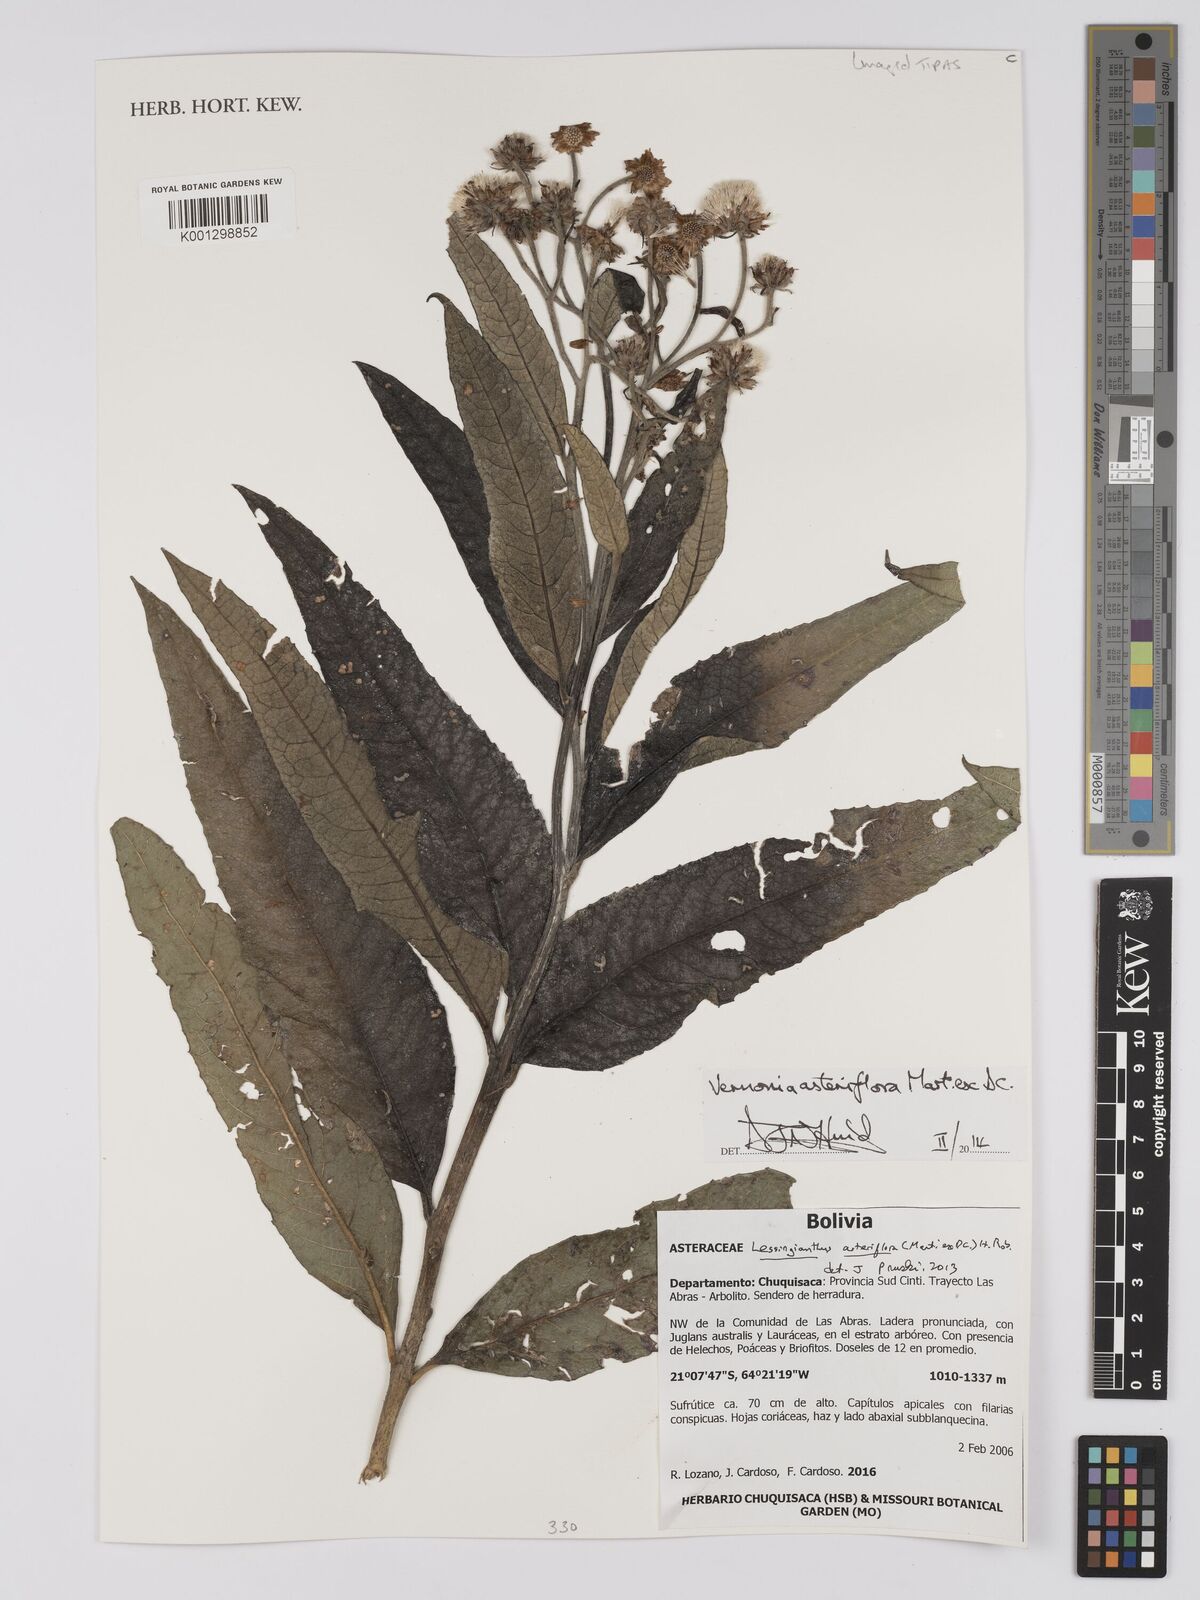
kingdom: Plantae
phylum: Tracheophyta
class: Magnoliopsida
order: Asterales
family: Asteraceae
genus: Lessingianthus
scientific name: Lessingianthus asteriflorus
